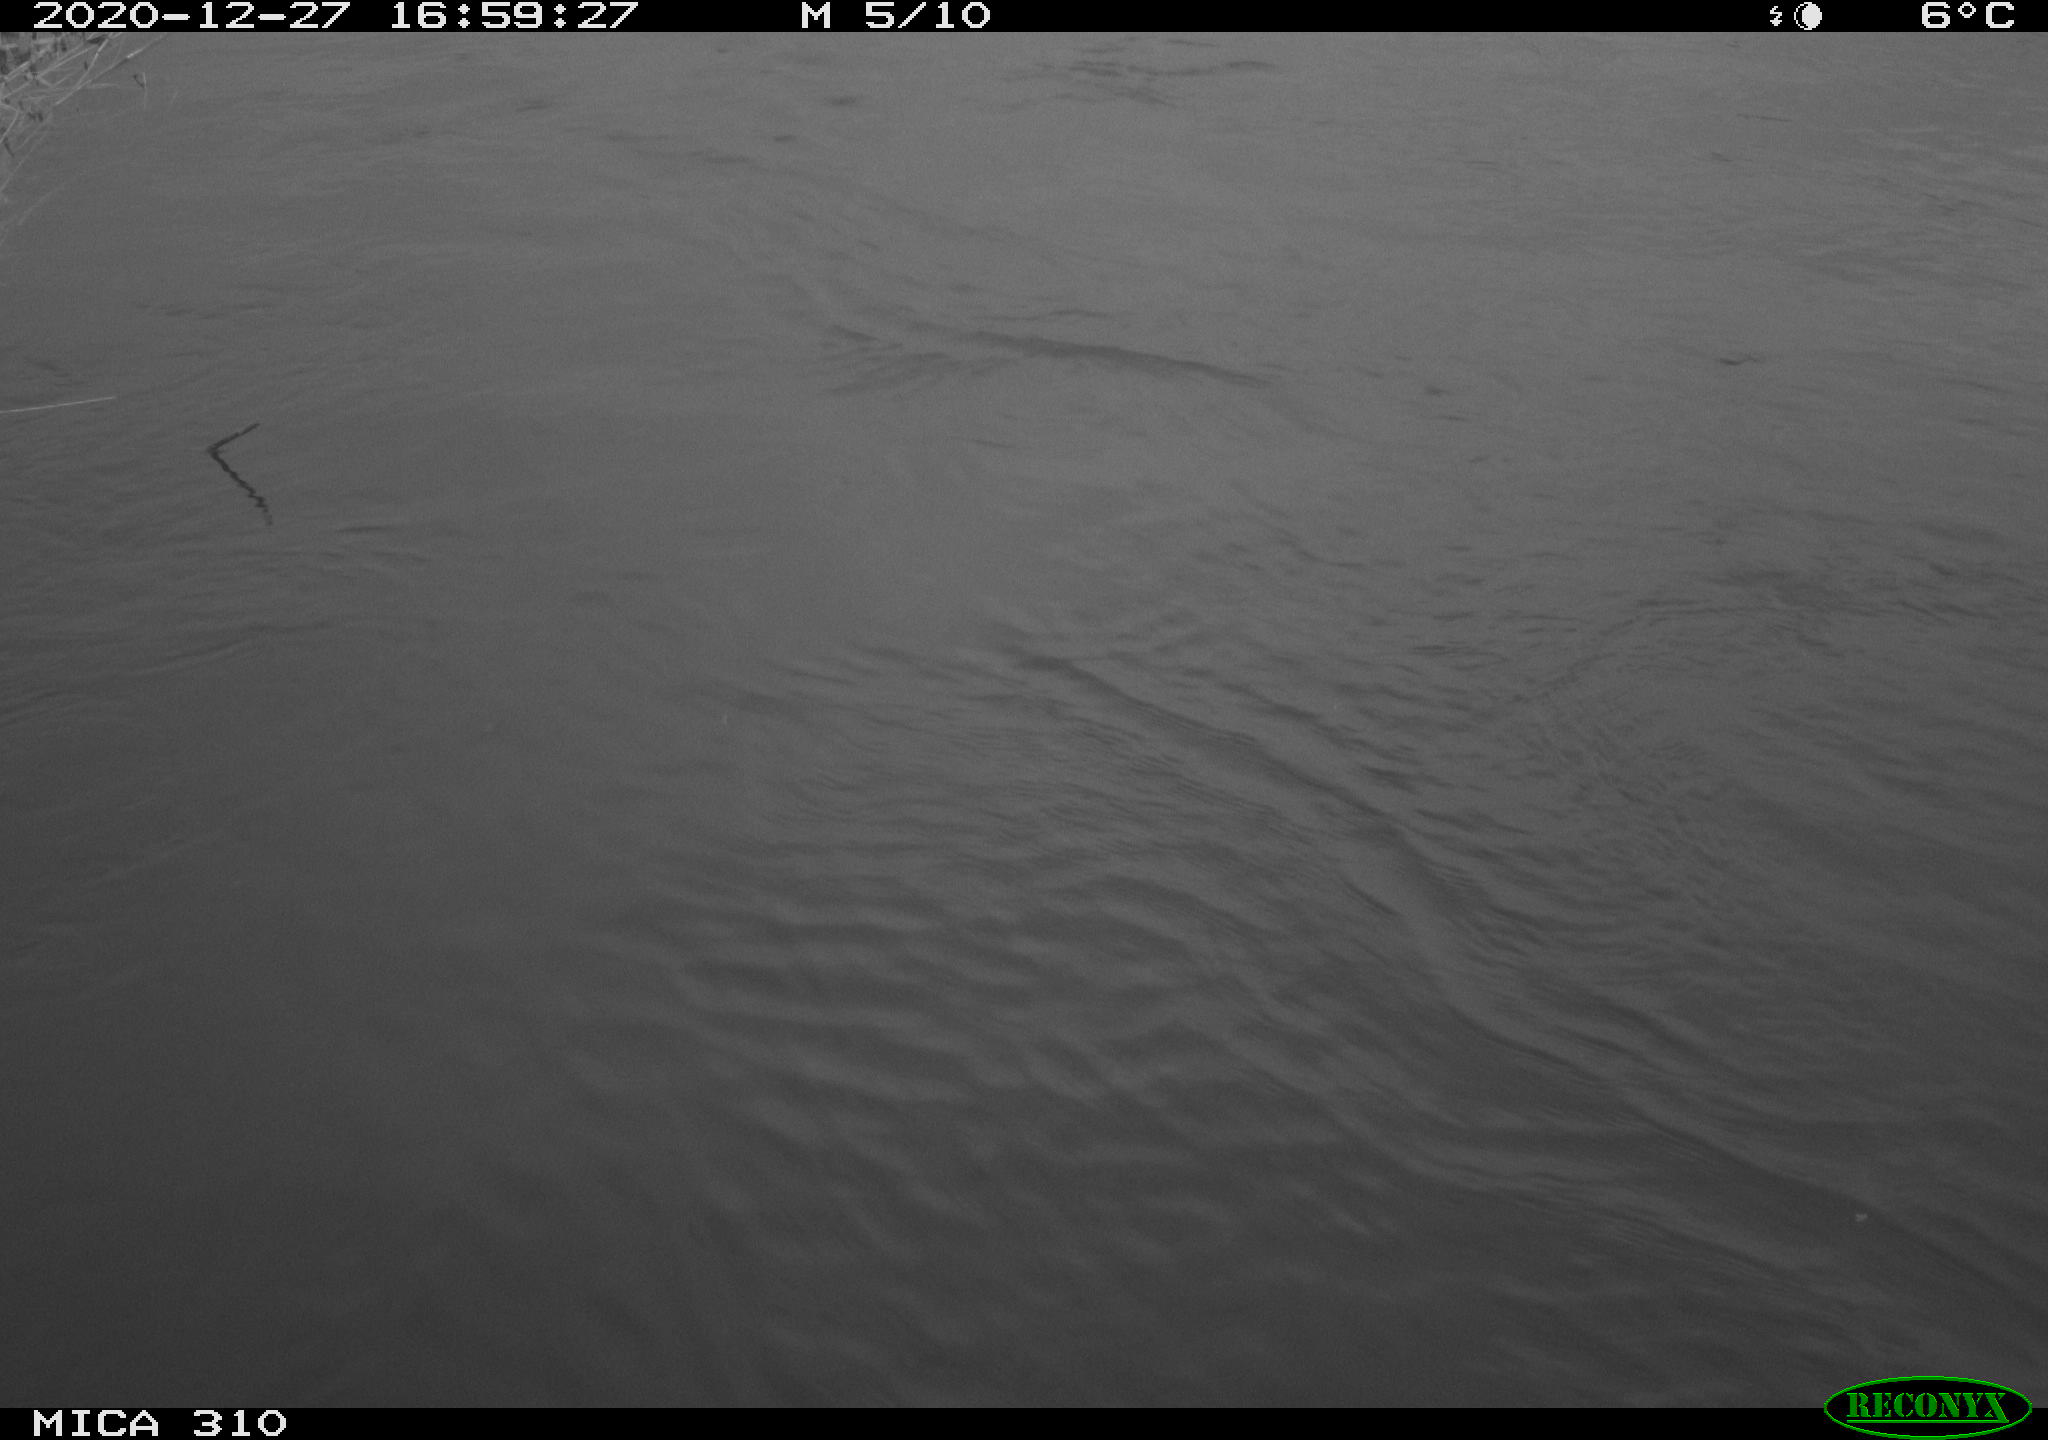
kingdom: Animalia
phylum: Chordata
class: Aves
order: Gruiformes
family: Rallidae
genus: Fulica
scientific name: Fulica atra
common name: Eurasian coot
